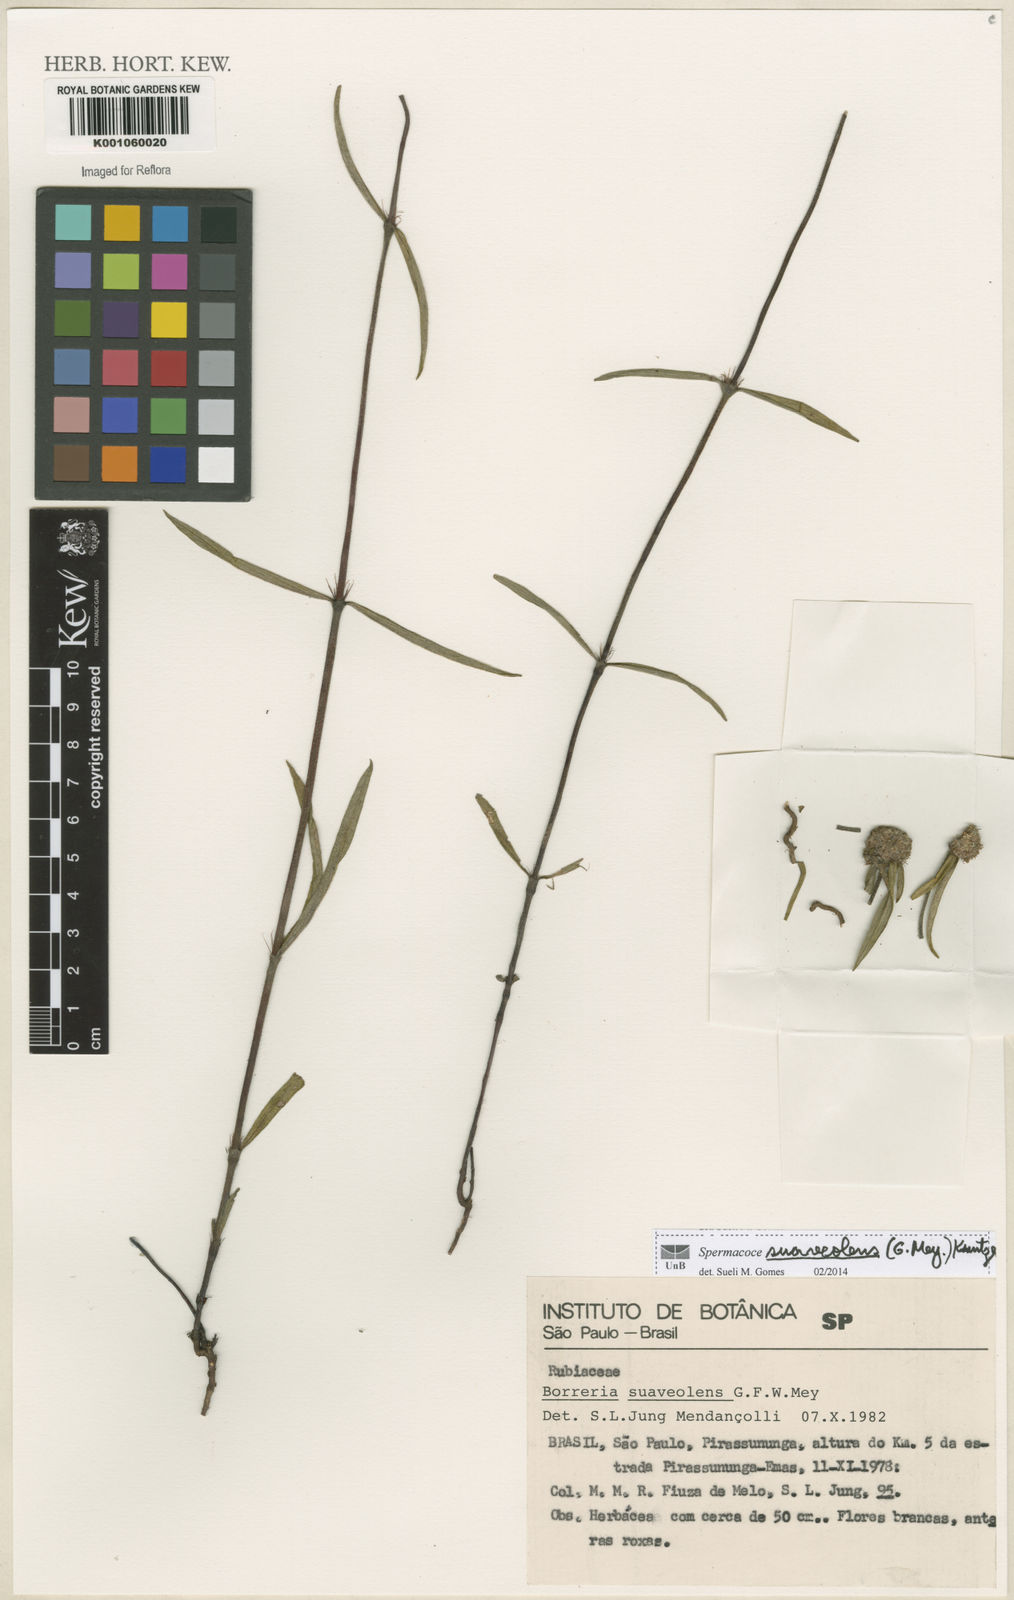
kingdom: Plantae
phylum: Tracheophyta
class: Magnoliopsida
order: Gentianales
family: Rubiaceae
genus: Spermacoce
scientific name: Spermacoce suaveolens
